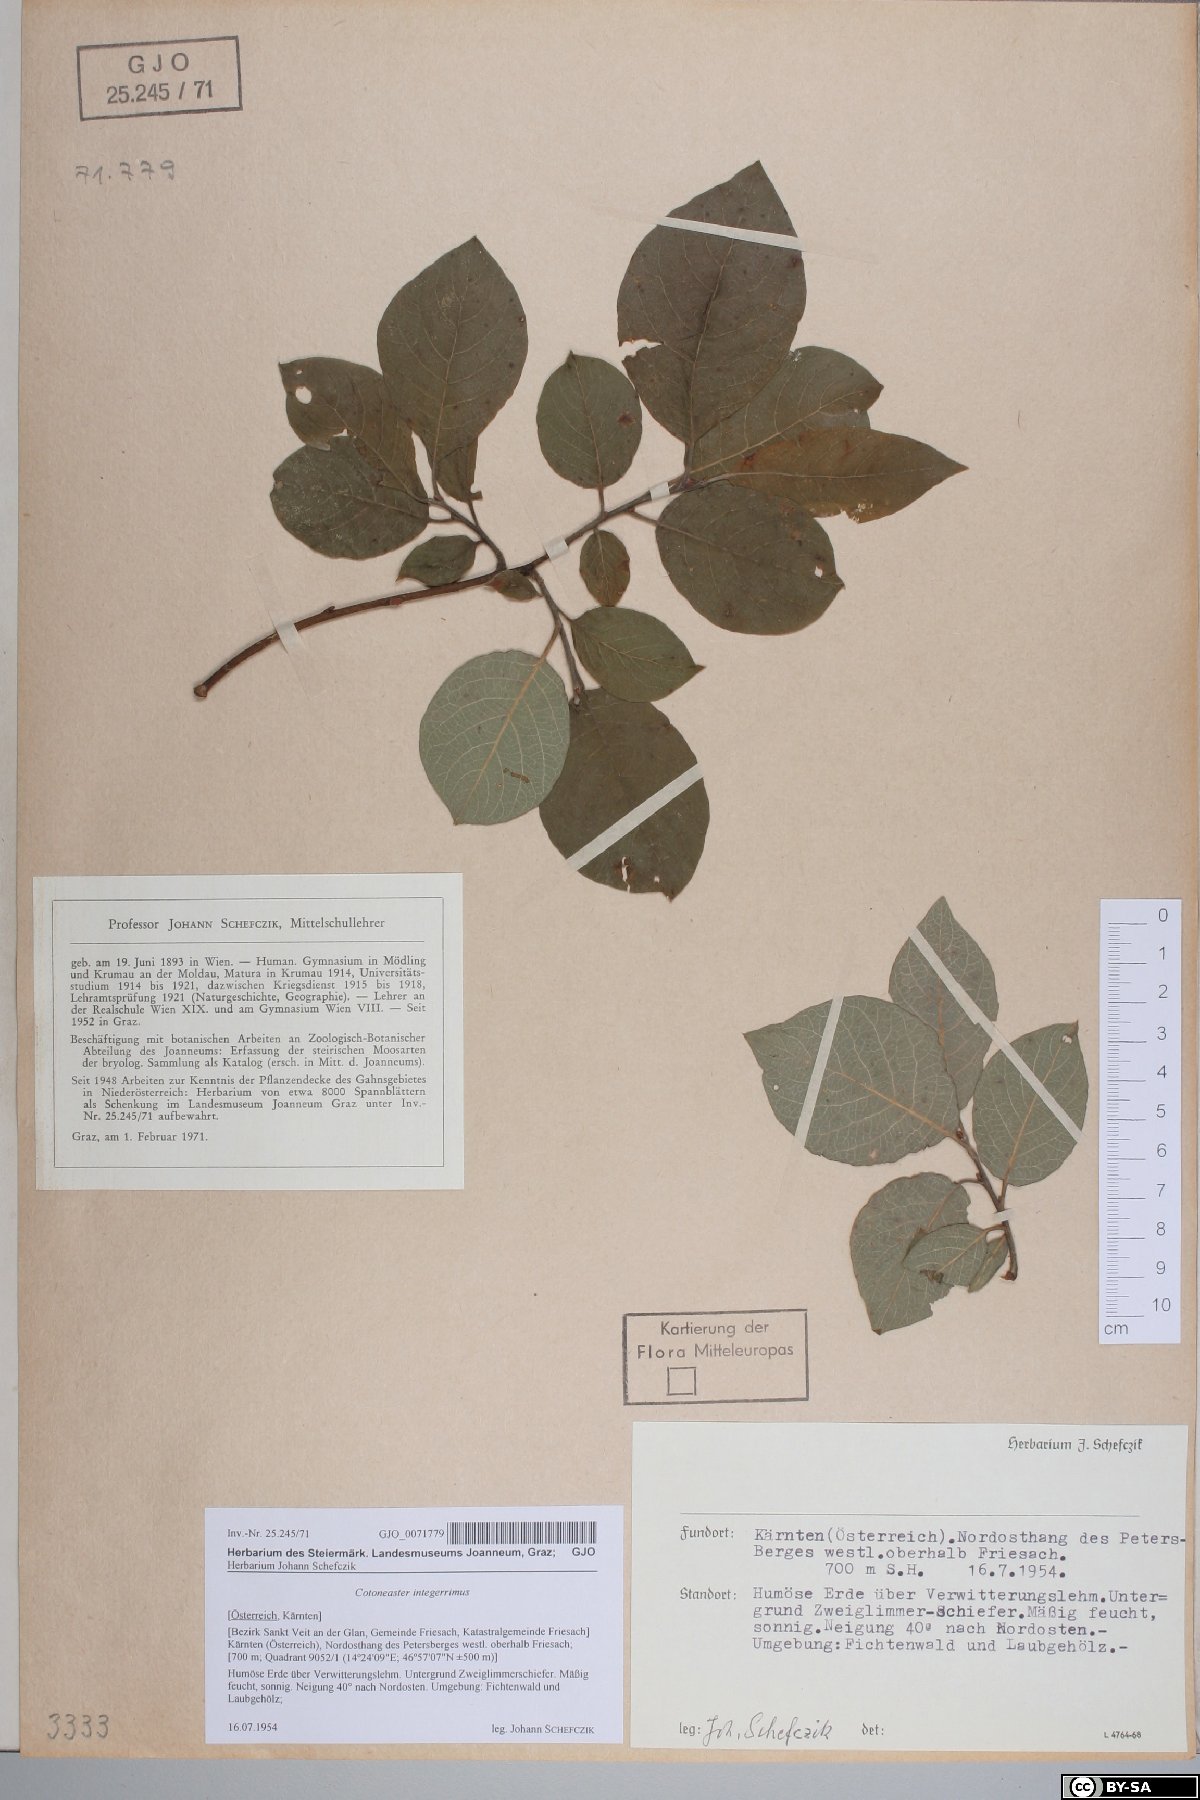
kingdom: Plantae
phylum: Tracheophyta
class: Magnoliopsida
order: Rosales
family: Rosaceae
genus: Cotoneaster
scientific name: Cotoneaster integerrimus
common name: Wild cotoneaster
